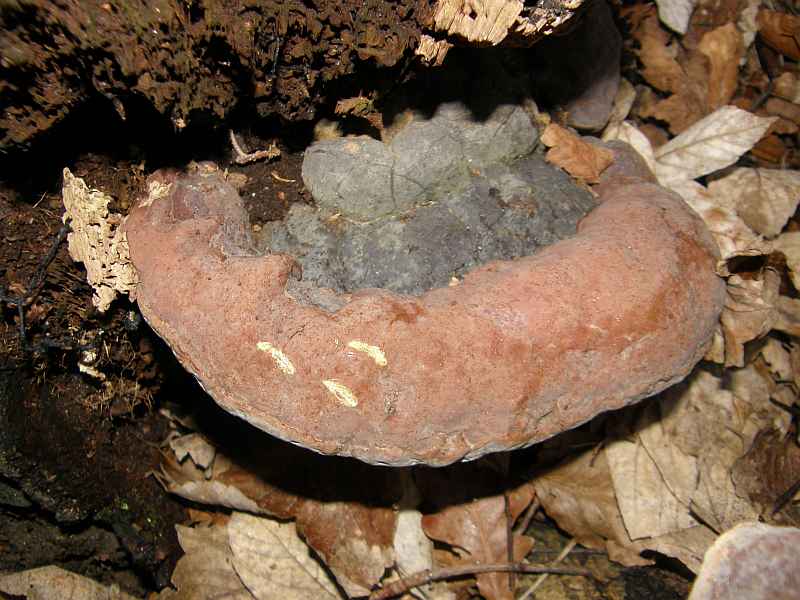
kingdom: Fungi
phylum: Basidiomycota
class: Agaricomycetes
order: Polyporales
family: Polyporaceae
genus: Ganoderma
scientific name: Ganoderma pfeifferi
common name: kobberrød lakporesvamp
